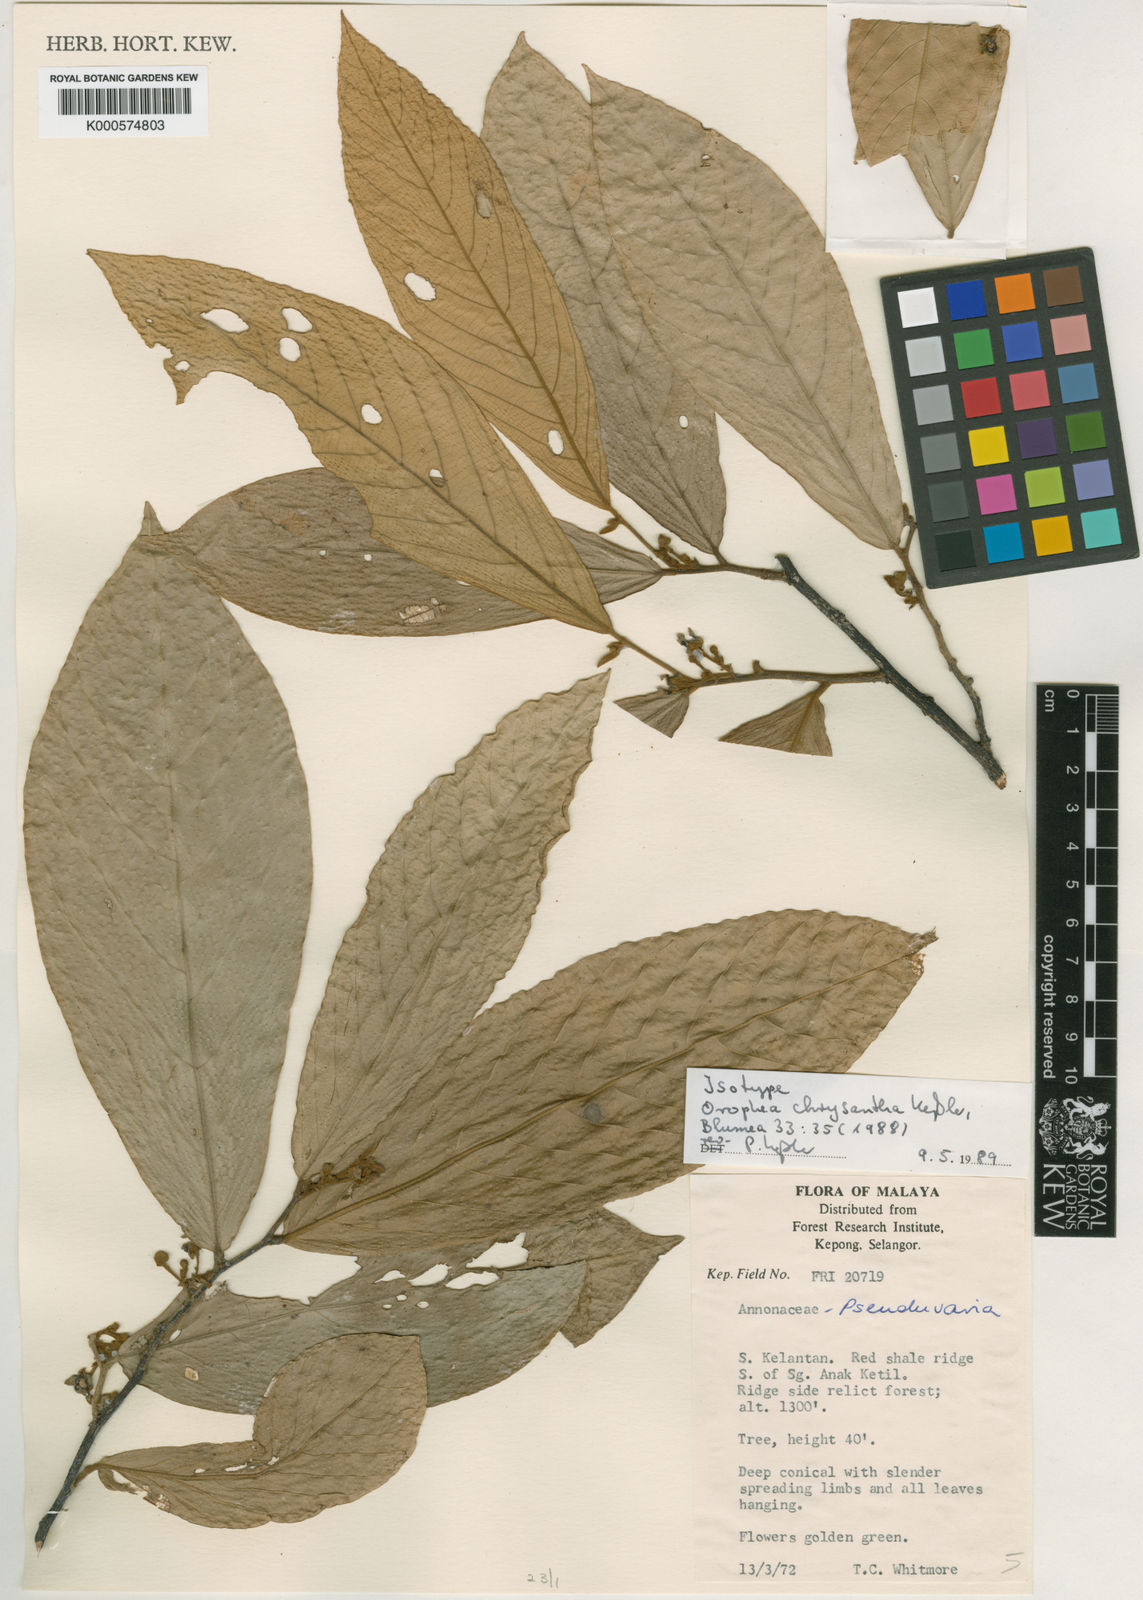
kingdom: Plantae
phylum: Tracheophyta
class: Magnoliopsida
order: Magnoliales
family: Annonaceae
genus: Orophea
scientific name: Orophea chrysantha
